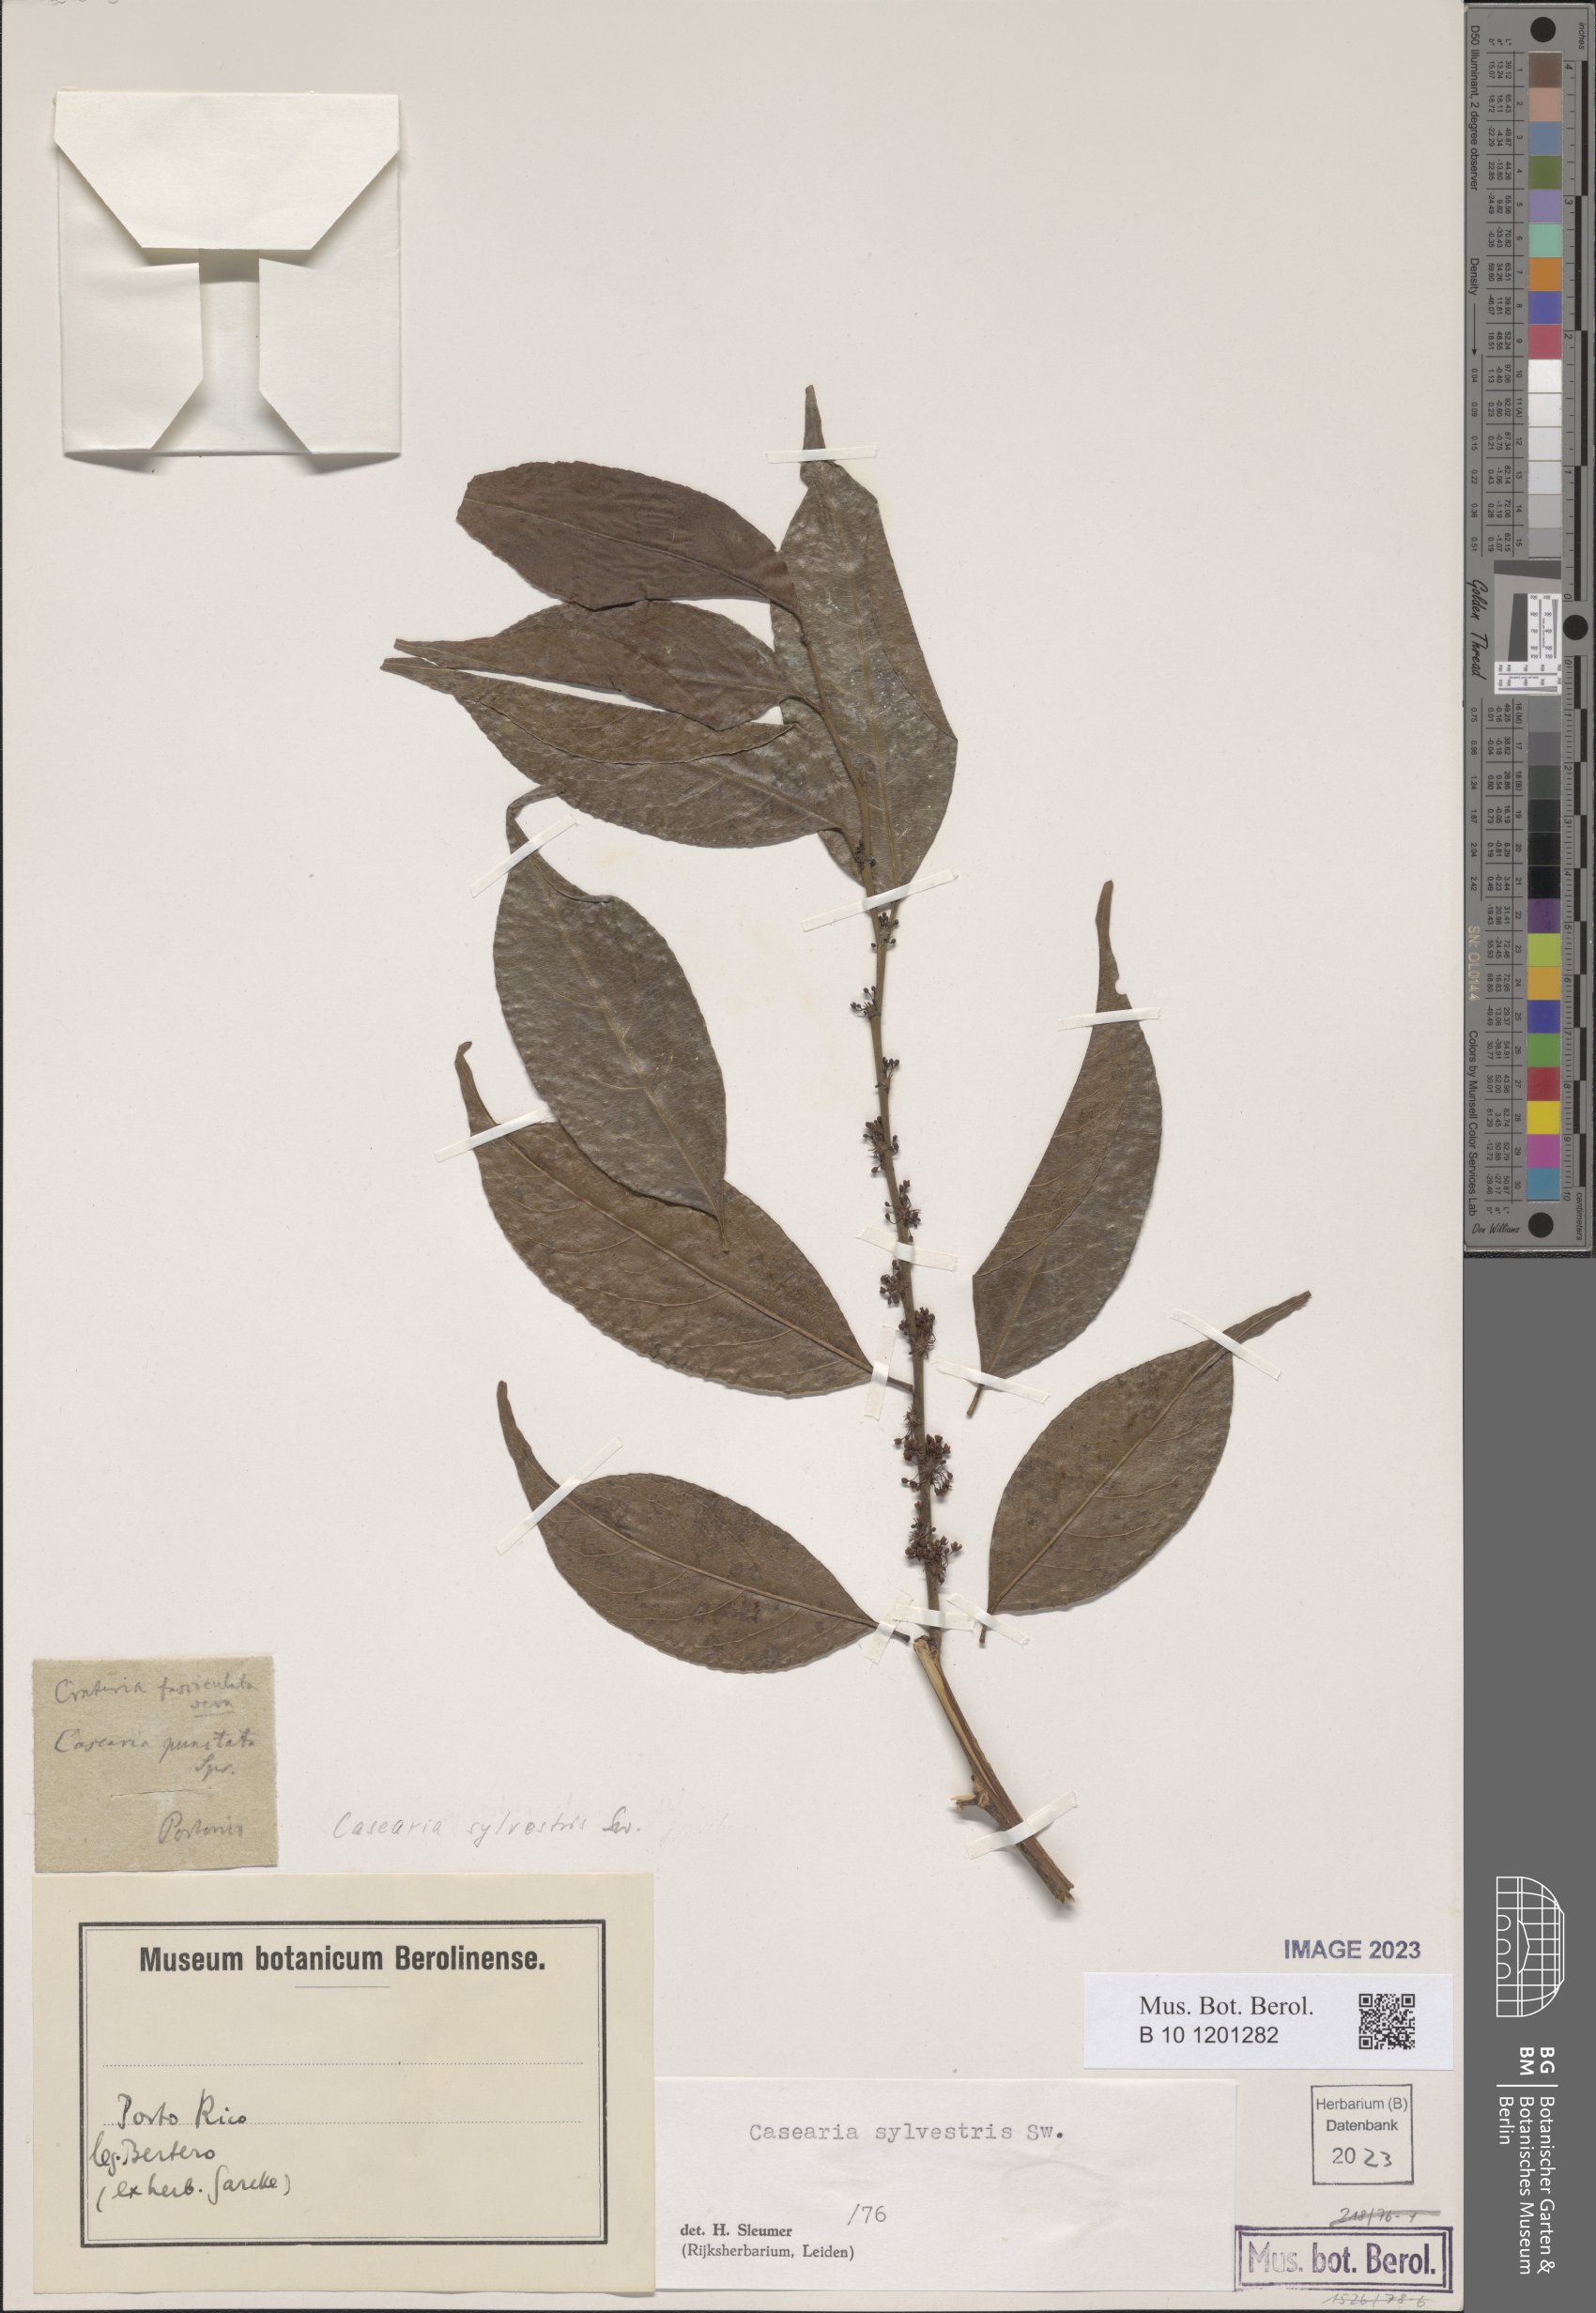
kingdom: Plantae
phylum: Tracheophyta
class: Magnoliopsida
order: Malpighiales
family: Salicaceae
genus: Casearia
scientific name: Casearia sylvestris
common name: Wild sage
